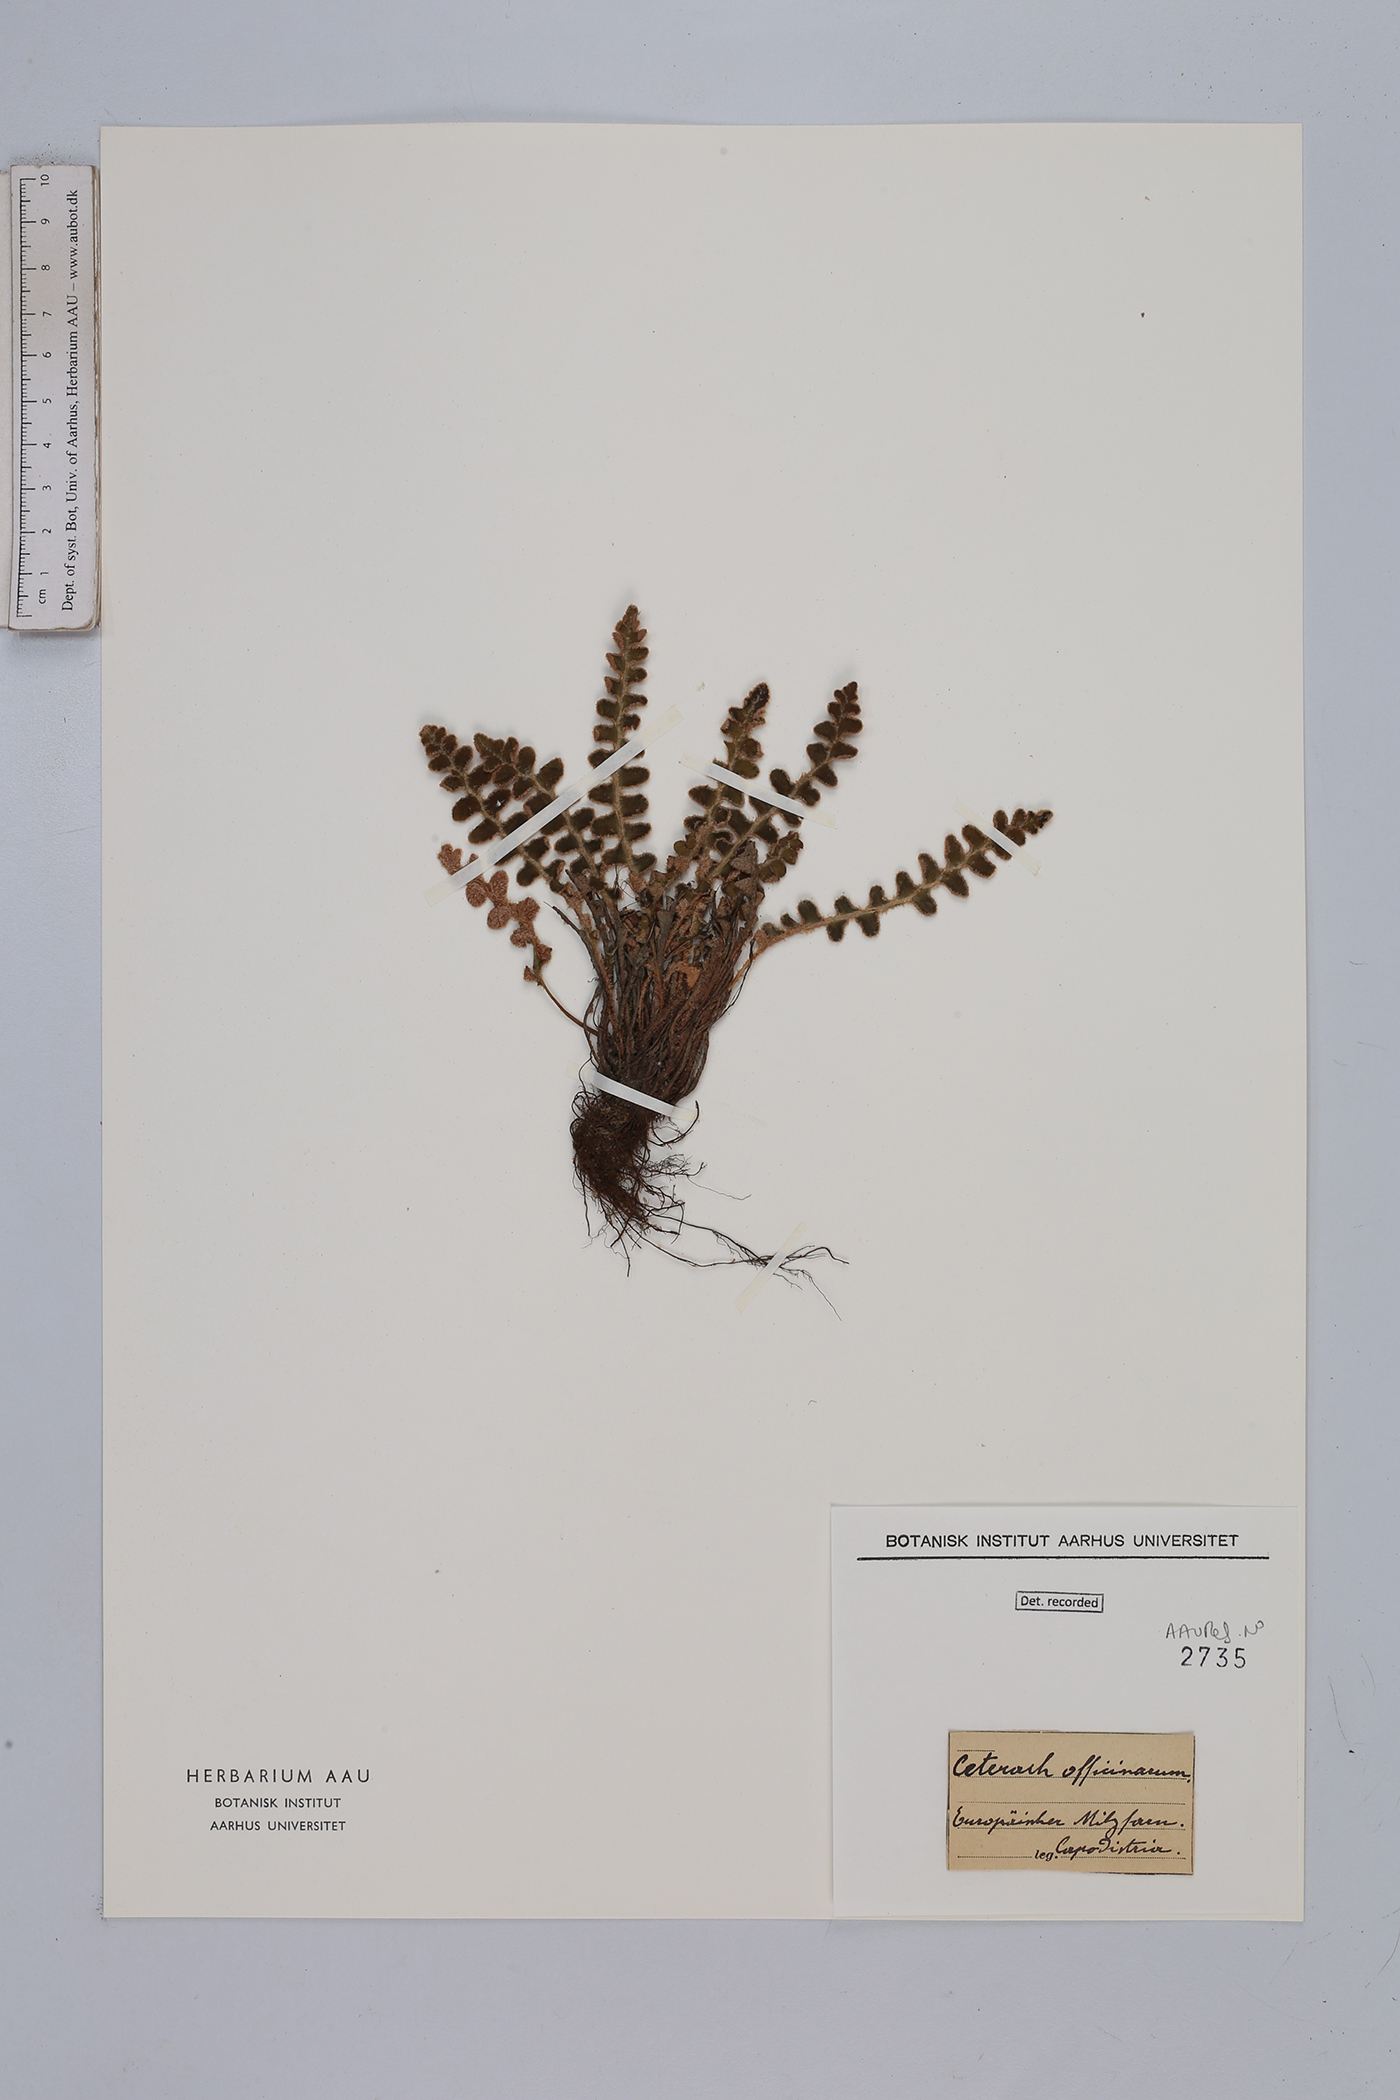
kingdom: Plantae
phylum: Tracheophyta
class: Polypodiopsida
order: Polypodiales
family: Aspleniaceae
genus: Asplenium
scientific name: Asplenium ceterach
